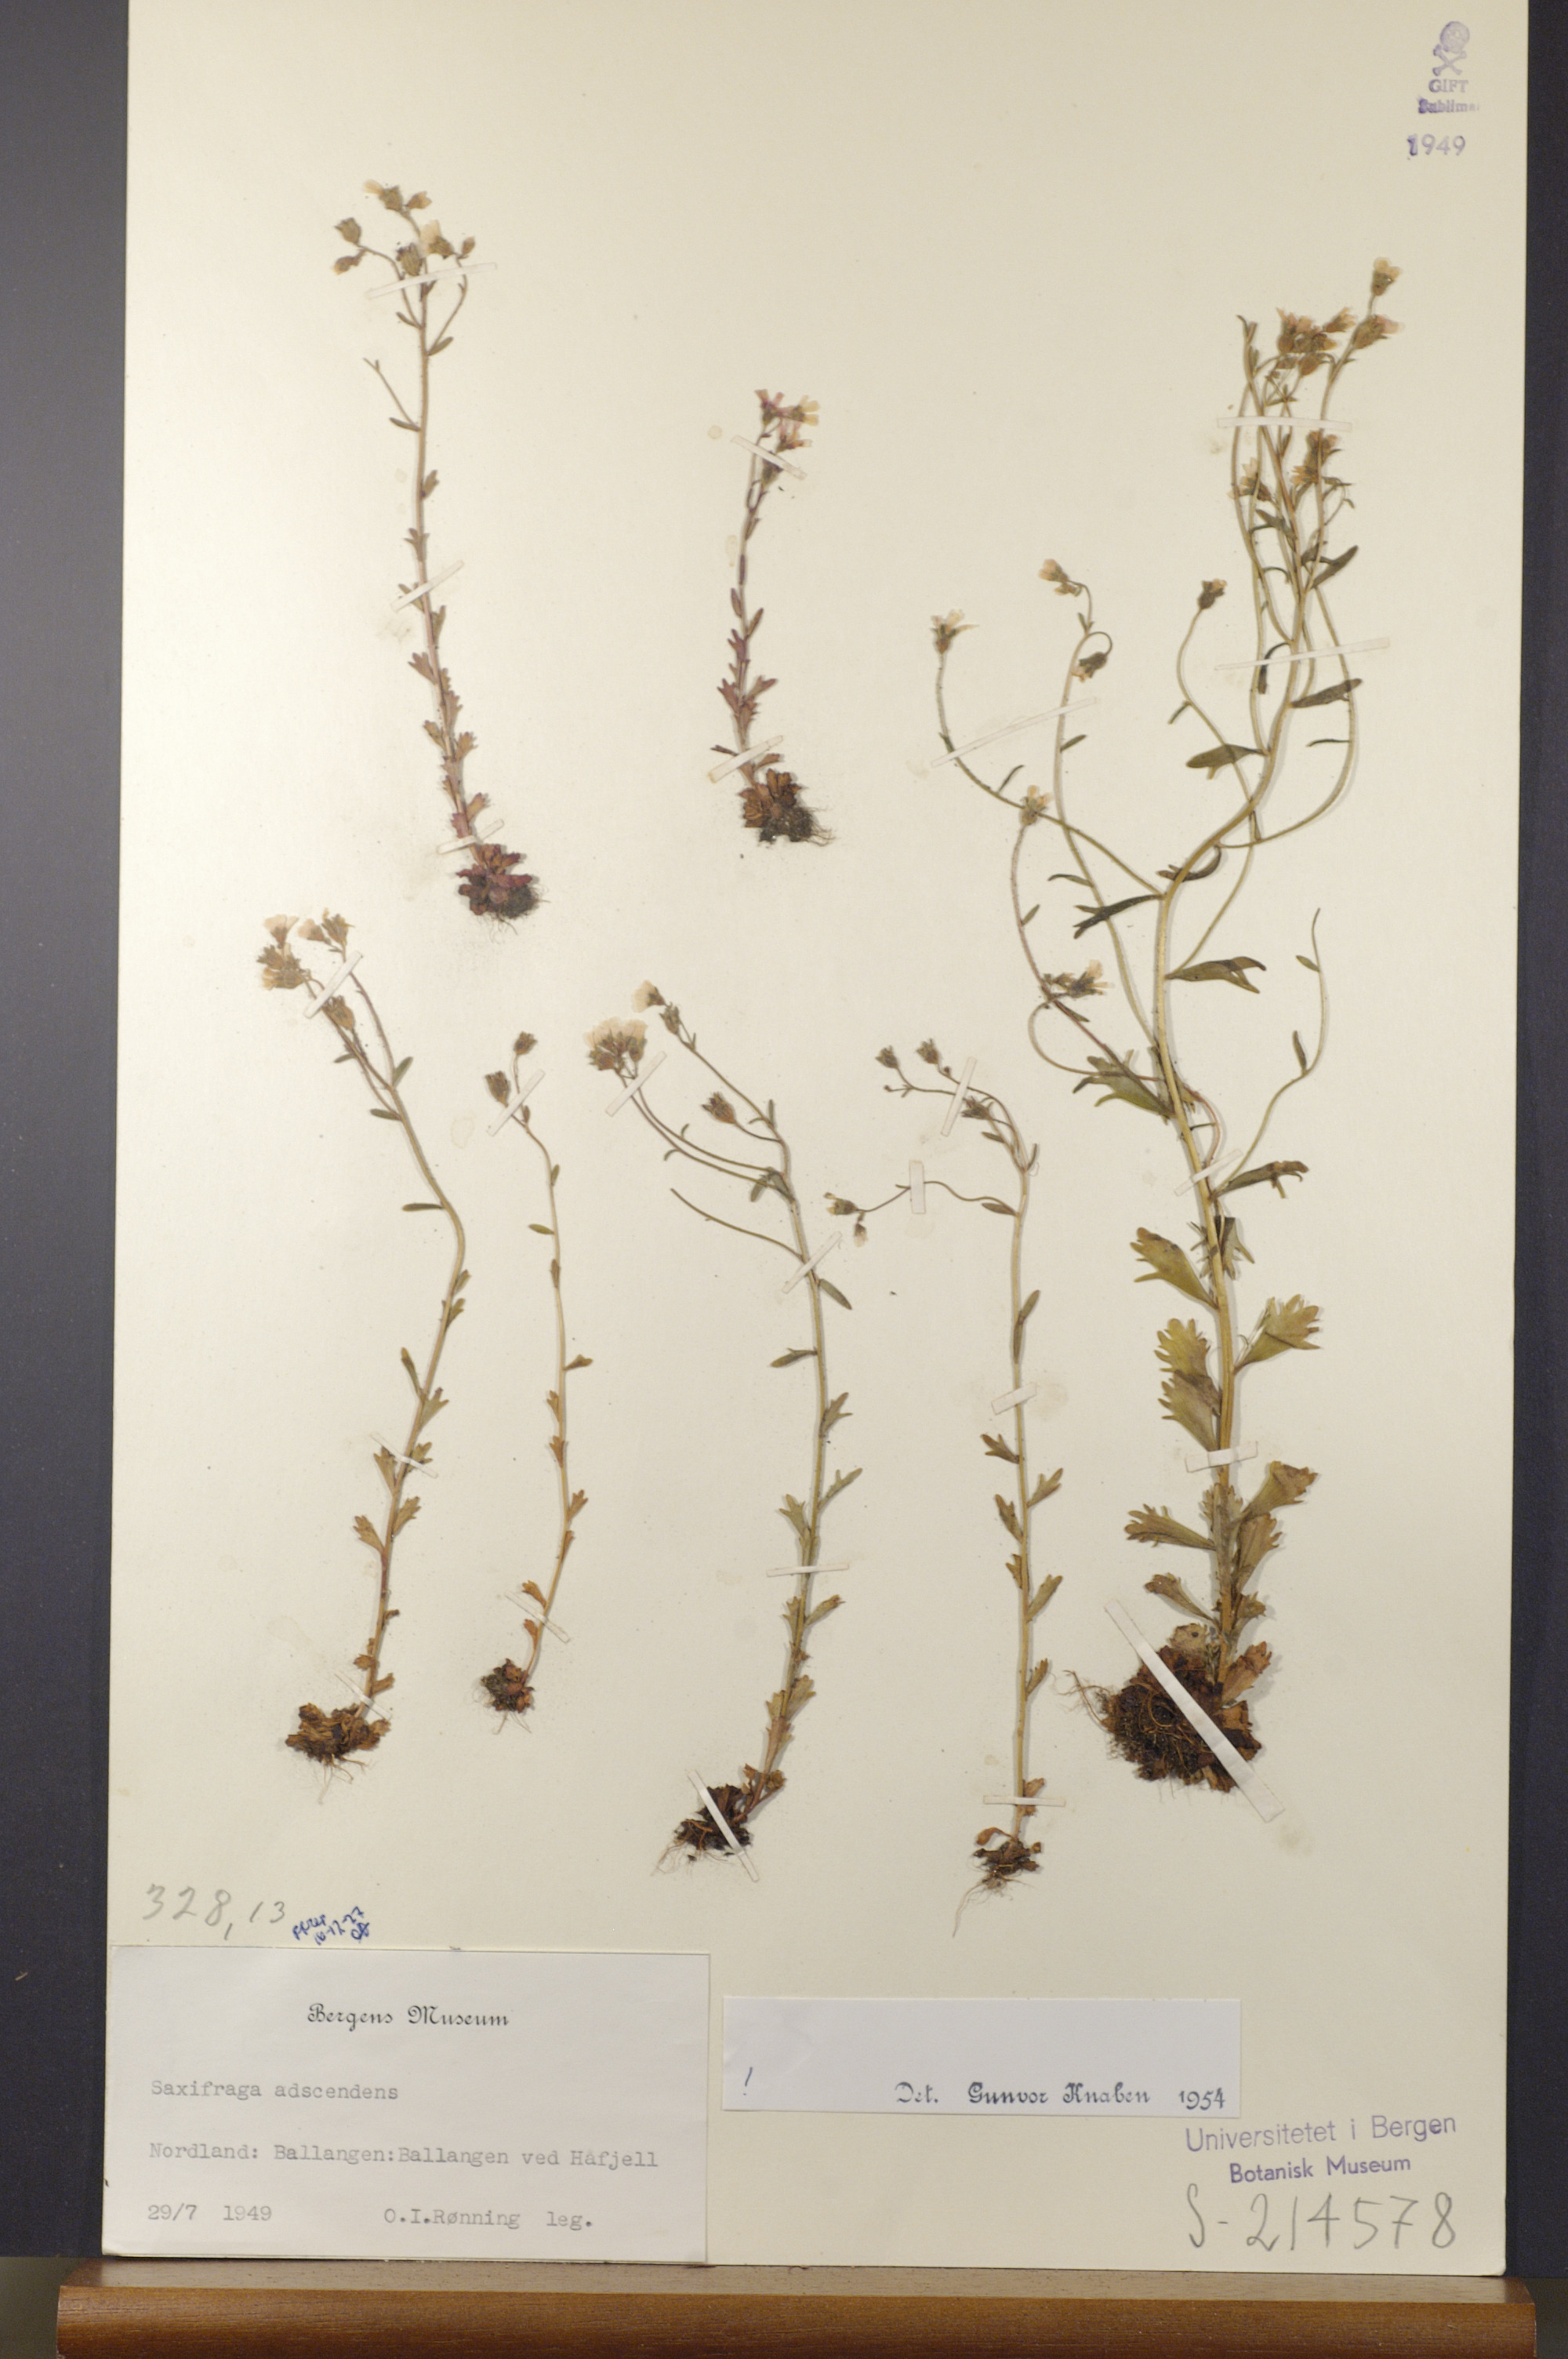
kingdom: Plantae
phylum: Tracheophyta
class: Magnoliopsida
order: Saxifragales
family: Saxifragaceae
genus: Saxifraga
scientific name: Saxifraga adscendens
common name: Ascending saxifrage
